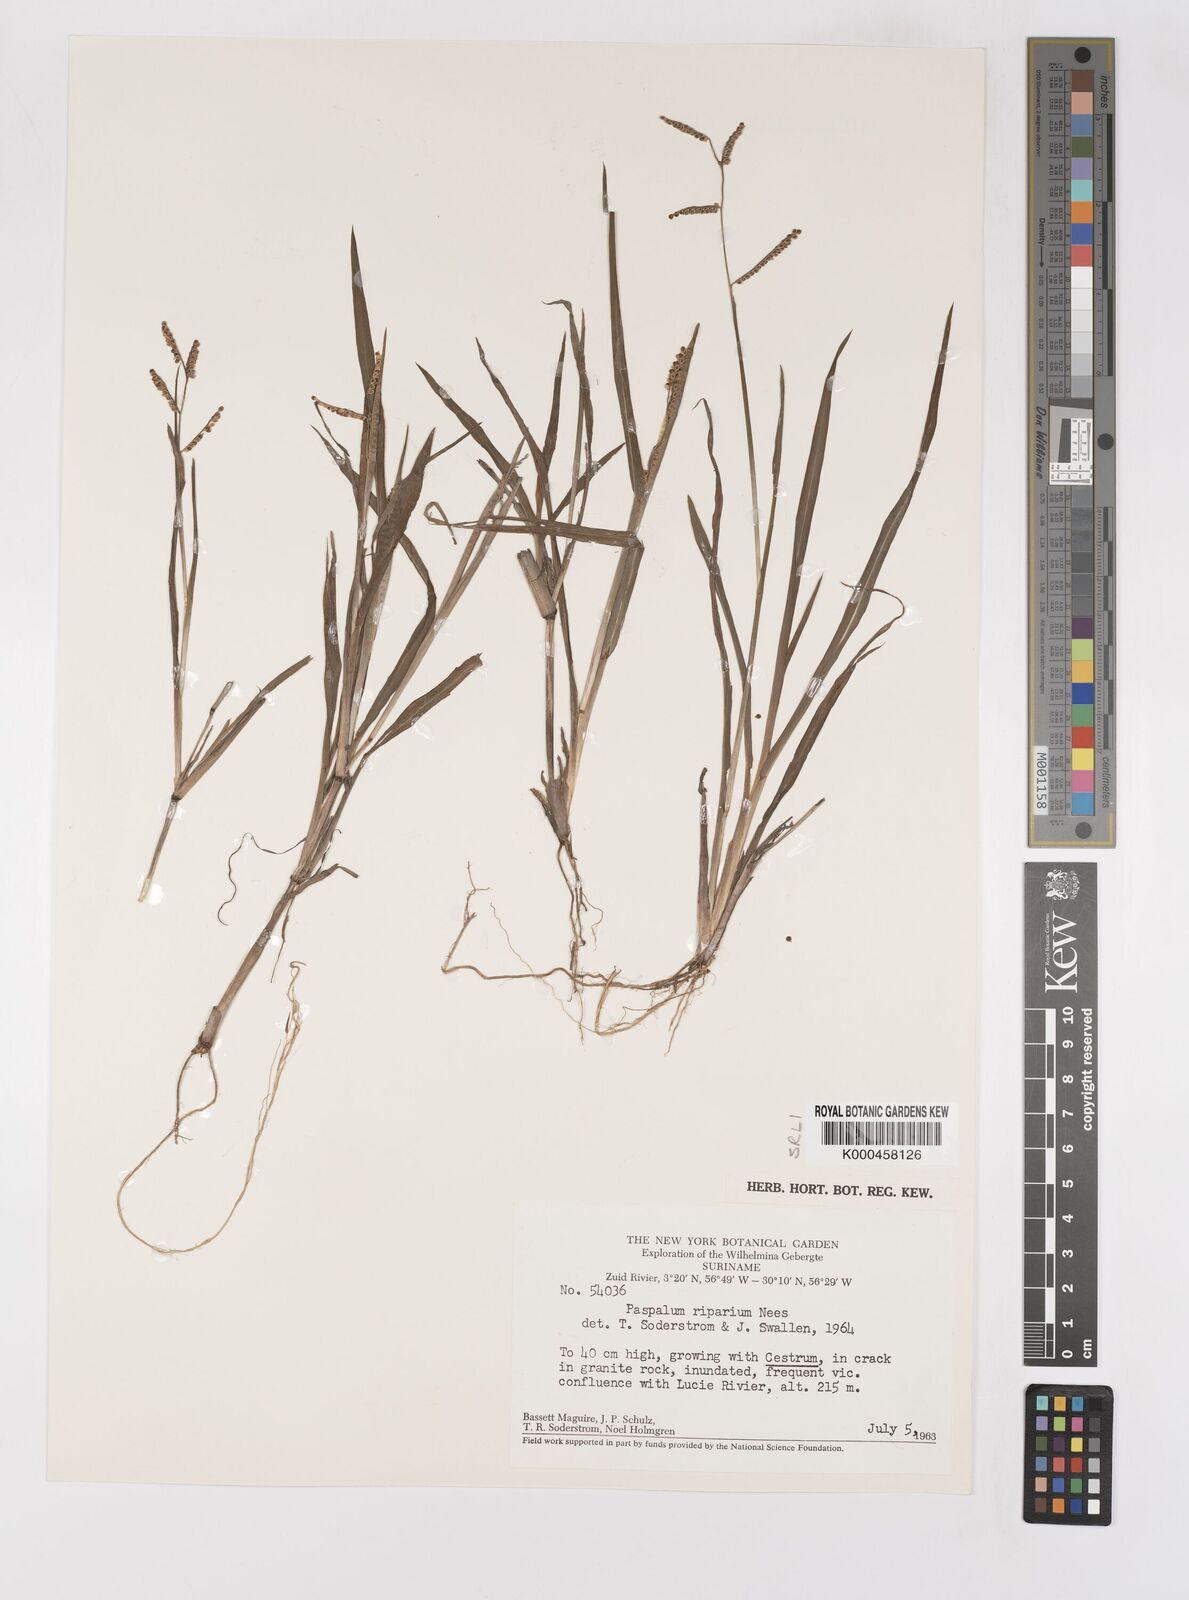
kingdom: Plantae
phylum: Tracheophyta
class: Liliopsida
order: Poales
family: Poaceae
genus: Paspalum
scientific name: Paspalum
